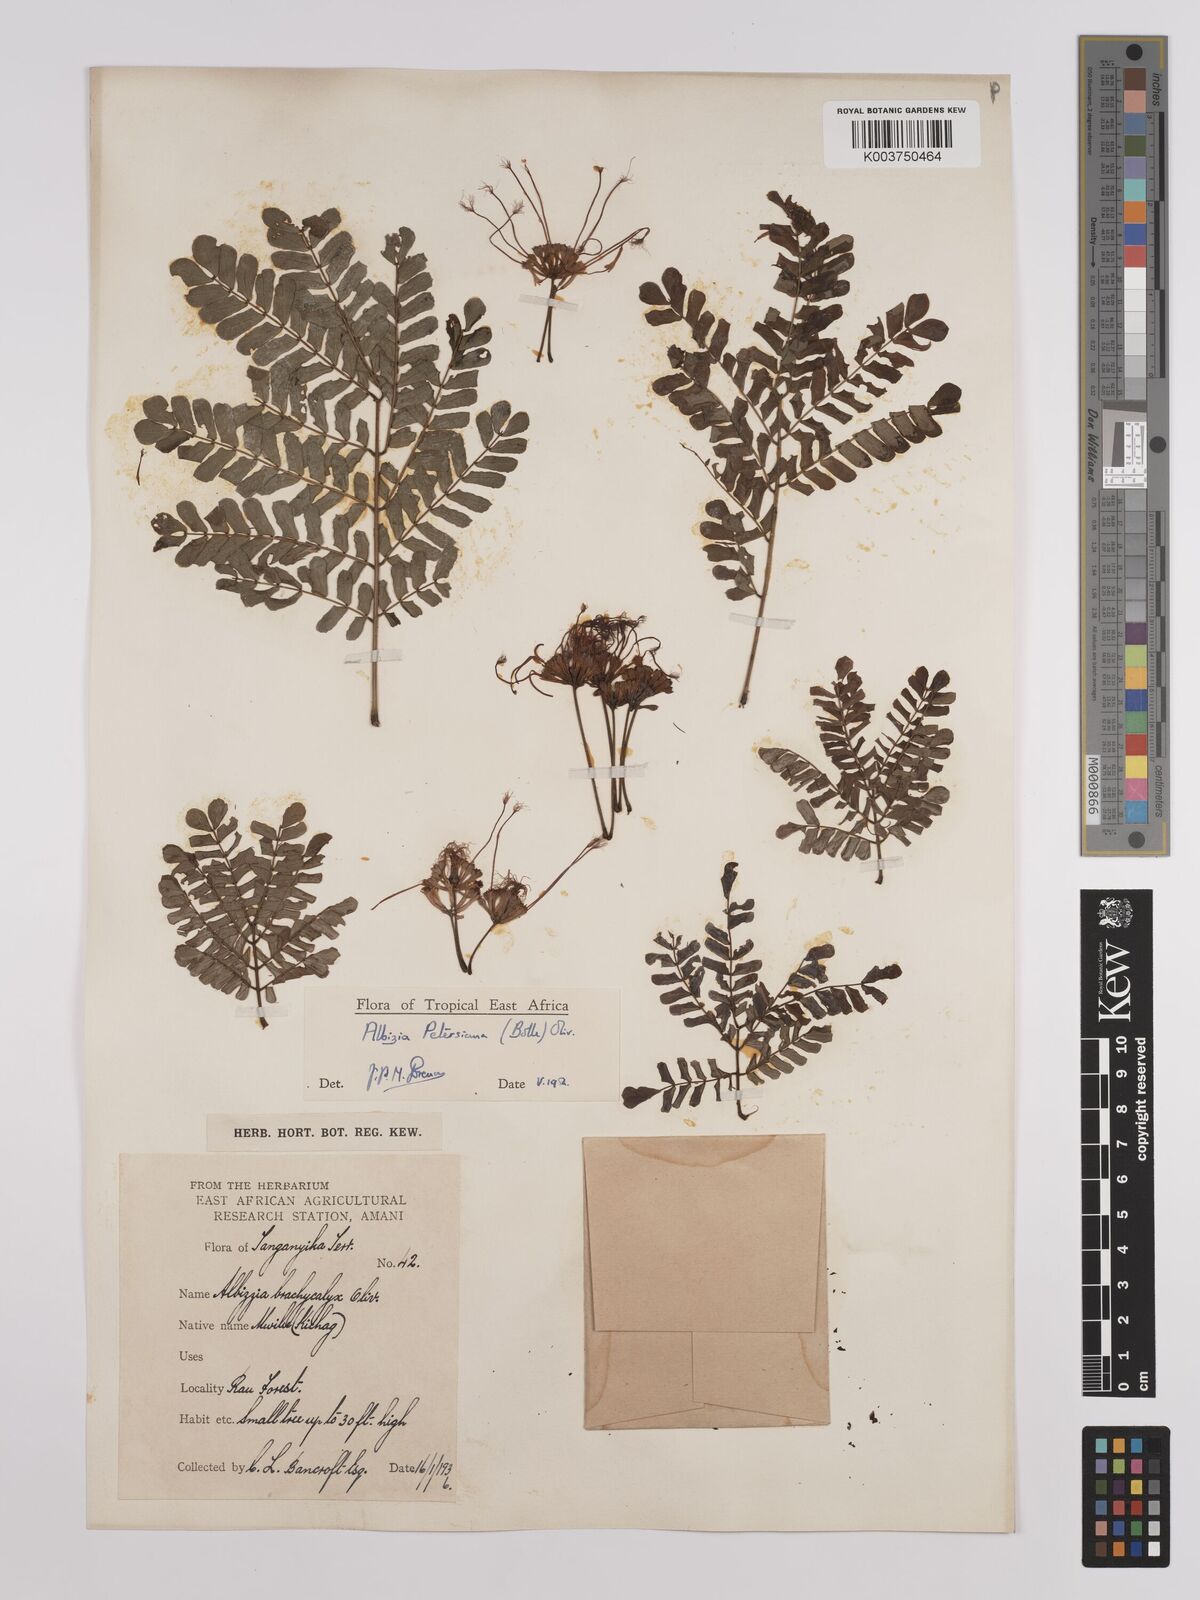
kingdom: Plantae
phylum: Tracheophyta
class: Magnoliopsida
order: Fabales
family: Fabaceae
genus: Albizia
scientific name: Albizia petersiana
